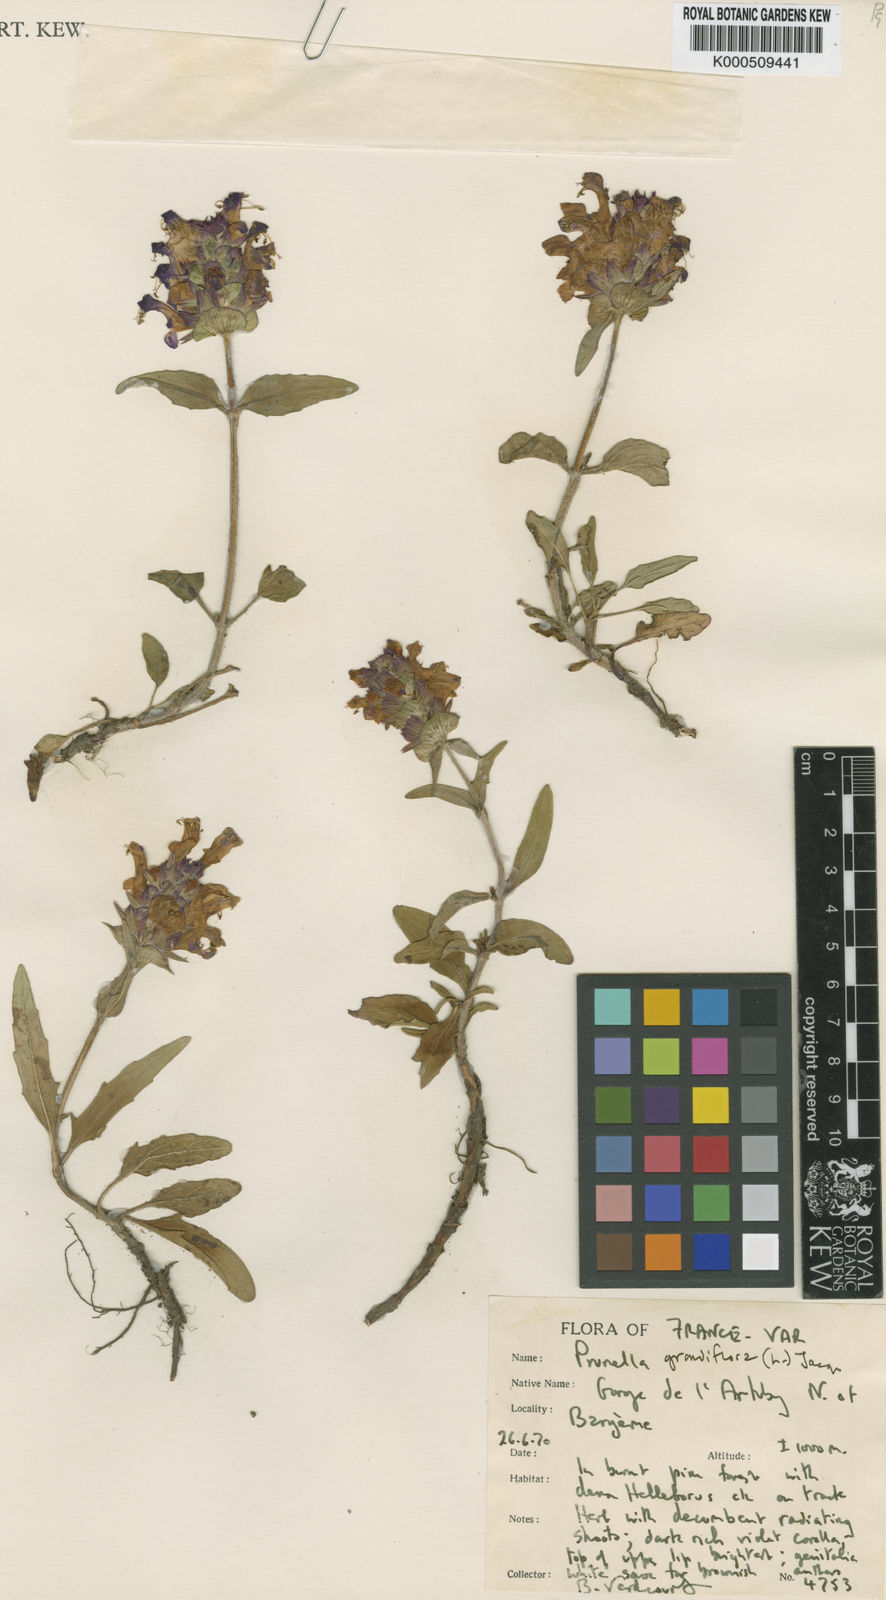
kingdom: Plantae
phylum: Tracheophyta
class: Magnoliopsida
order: Lamiales
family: Lamiaceae
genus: Prunella
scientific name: Prunella
